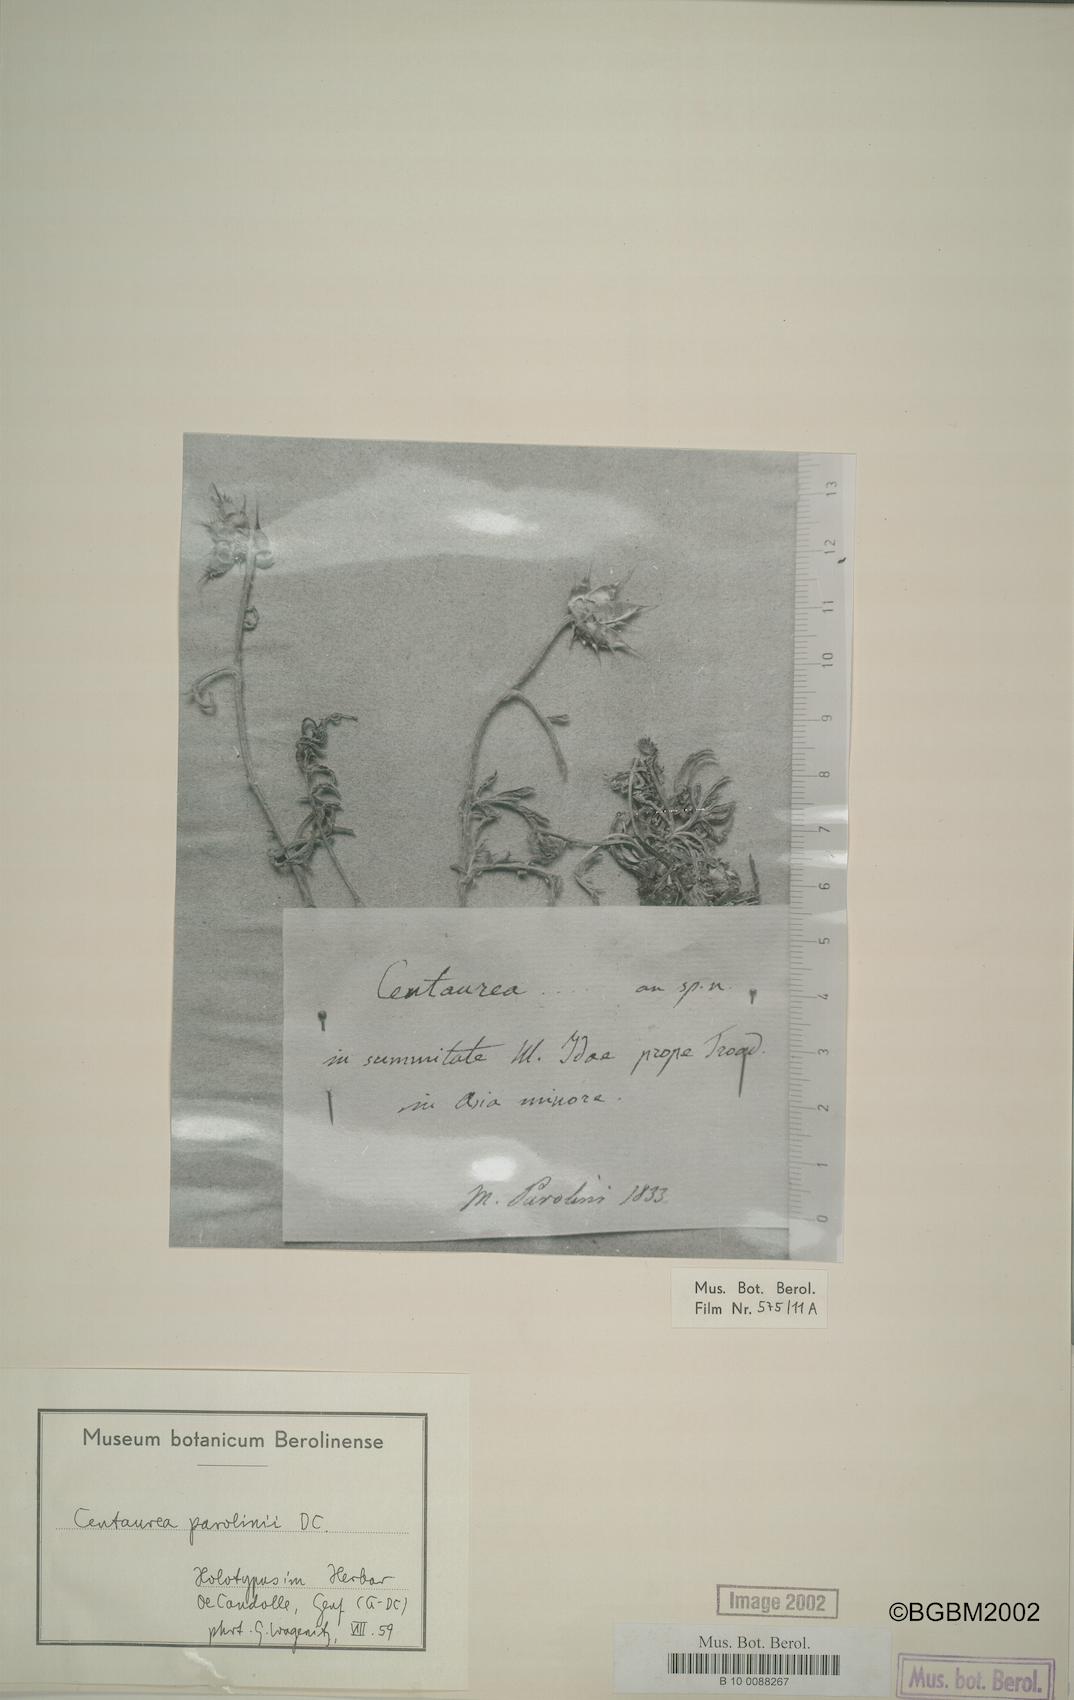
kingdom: Plantae
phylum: Tracheophyta
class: Magnoliopsida
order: Asterales
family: Asteraceae
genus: Centaurea
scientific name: Centaurea athoa
